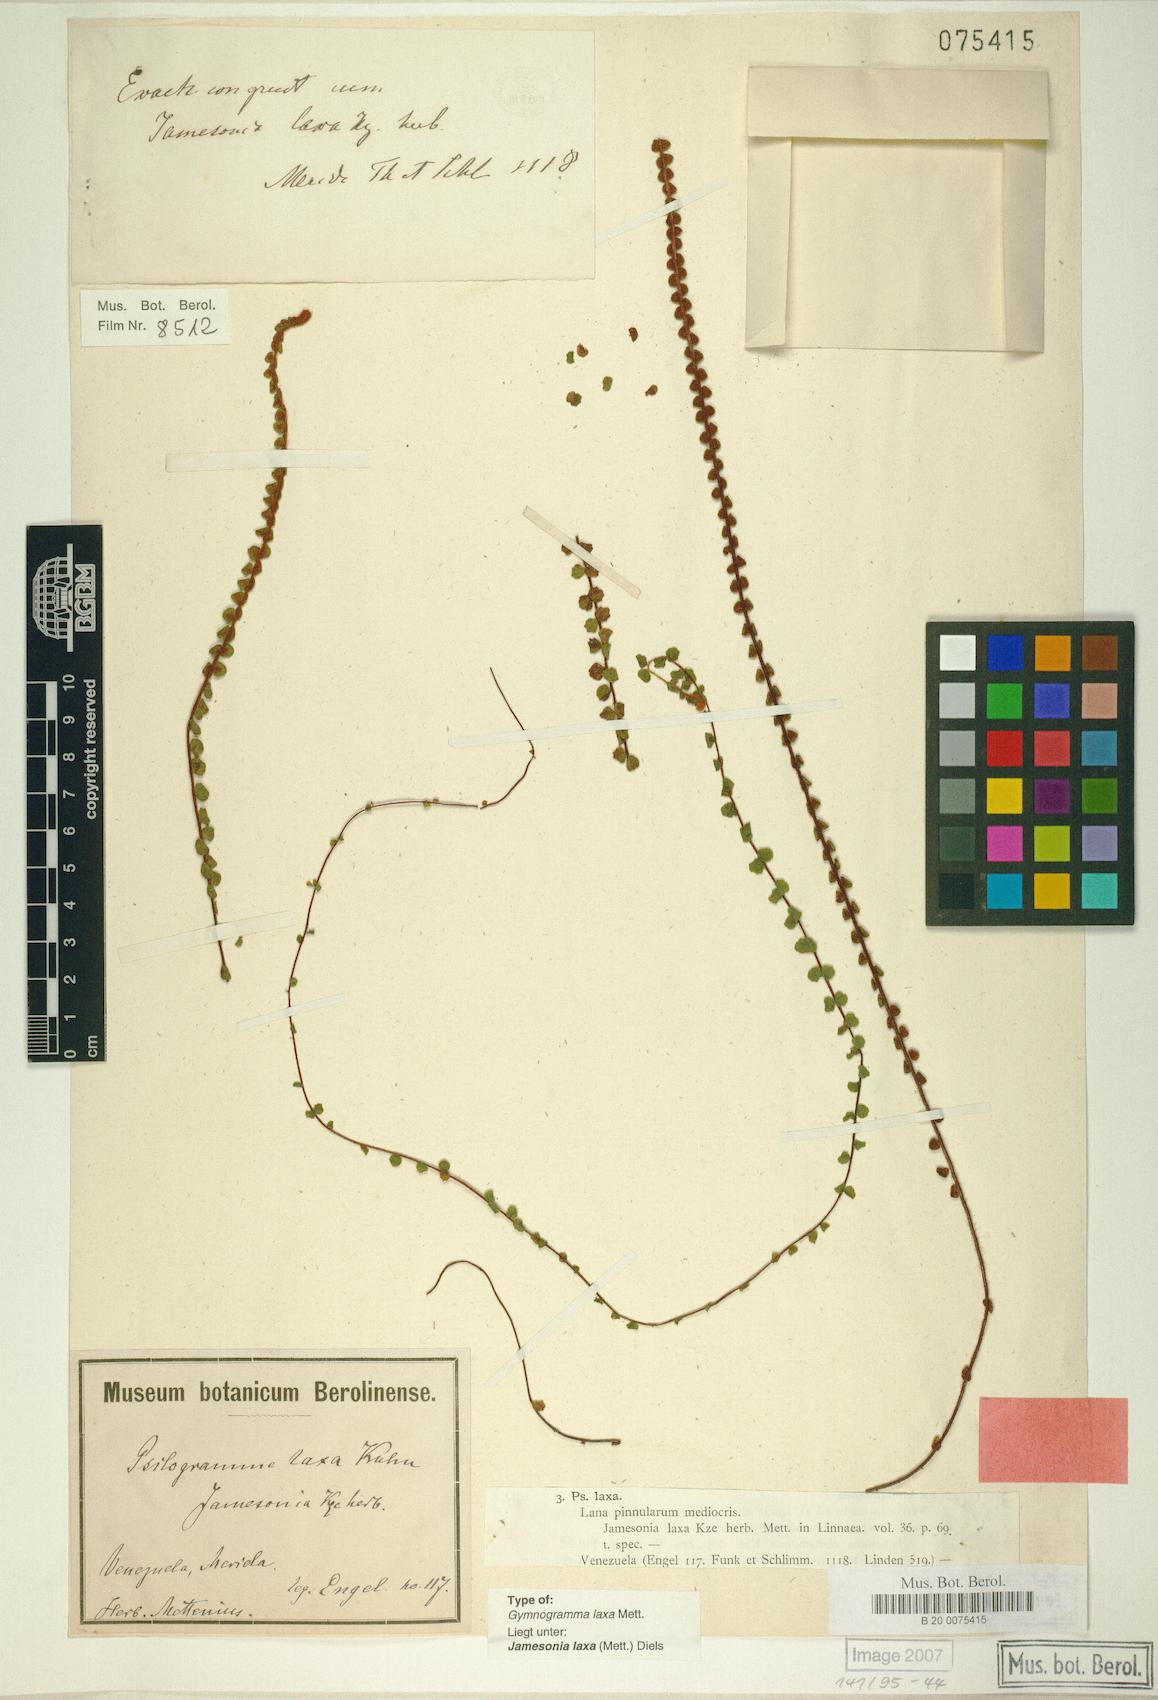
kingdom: Plantae
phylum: Tracheophyta
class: Polypodiopsida
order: Polypodiales
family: Pteridaceae
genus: Jamesonia
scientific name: Jamesonia laxa
